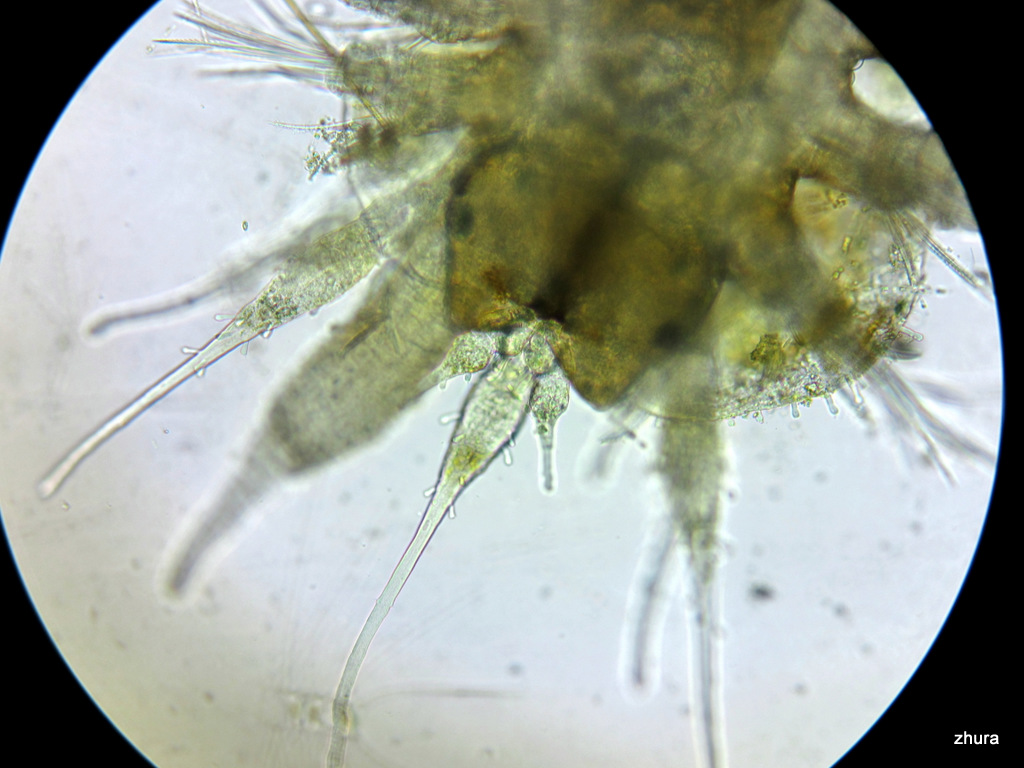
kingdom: Animalia
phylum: Annelida
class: Polychaeta
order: Phyllodocida
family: Polynoidae
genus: Lepidonotus
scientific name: Lepidonotus squamatus
